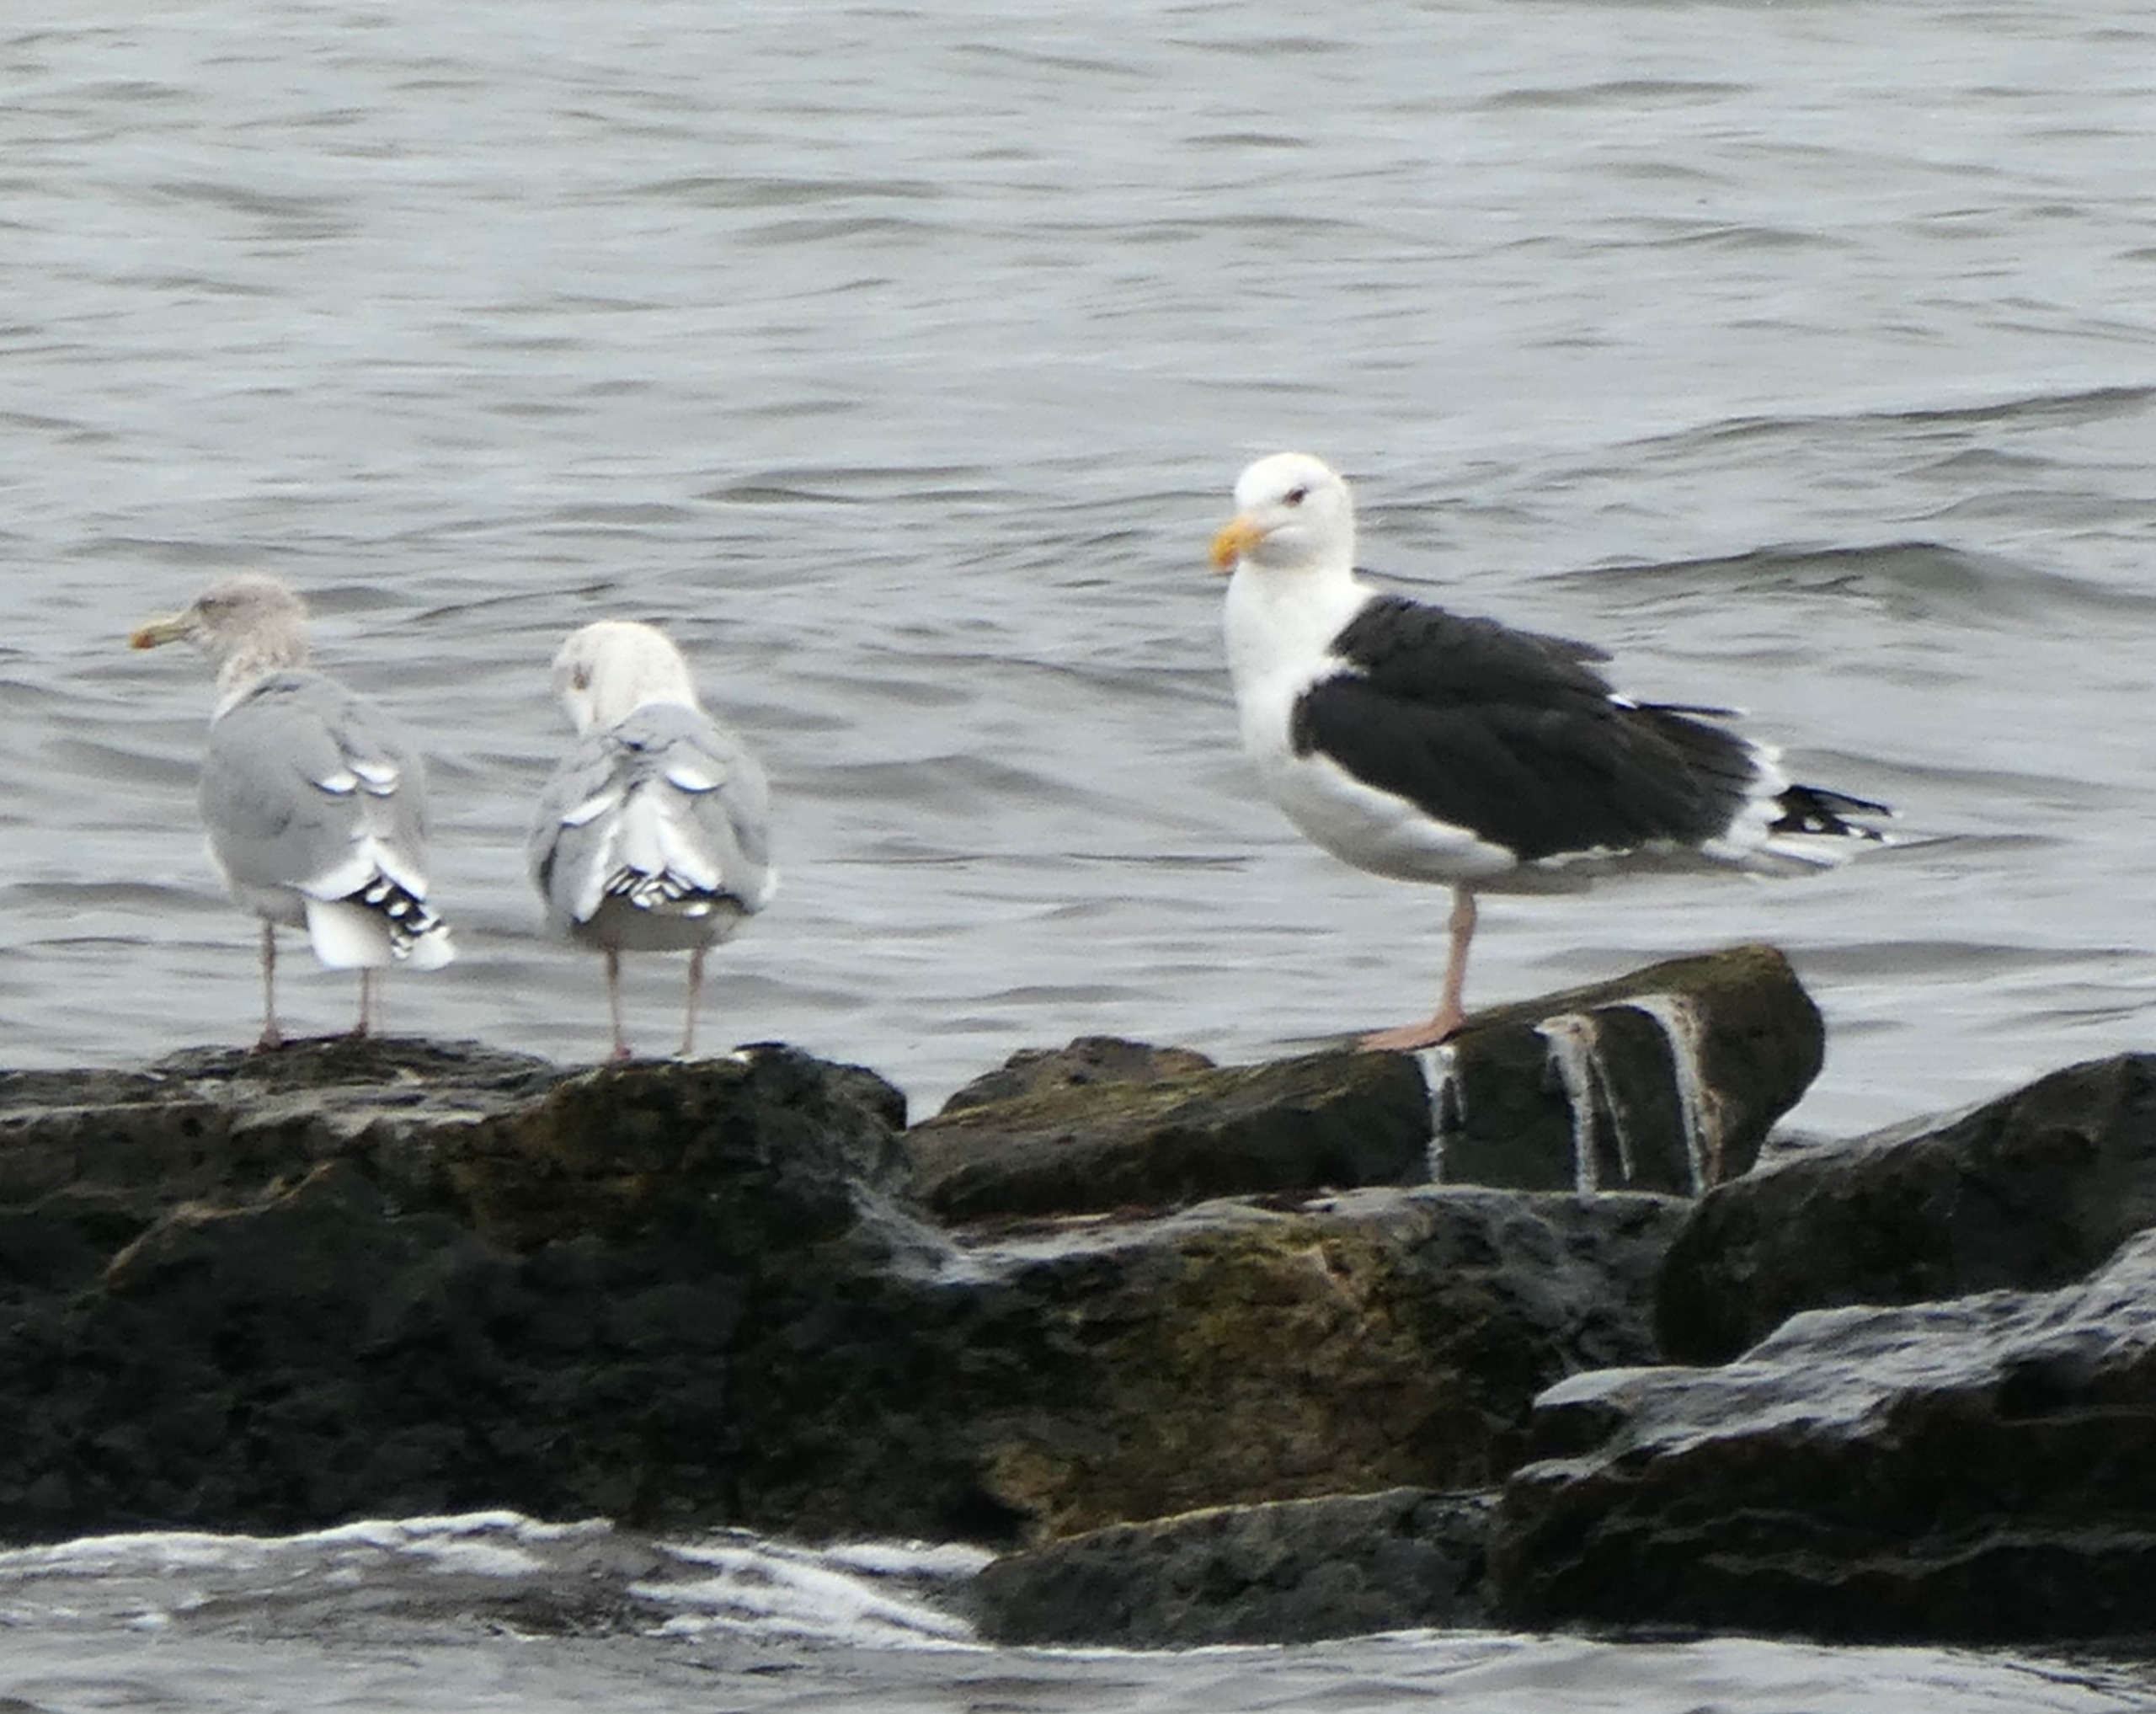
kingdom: Animalia
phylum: Chordata
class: Aves
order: Charadriiformes
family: Laridae
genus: Larus
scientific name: Larus marinus
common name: Svartbag
